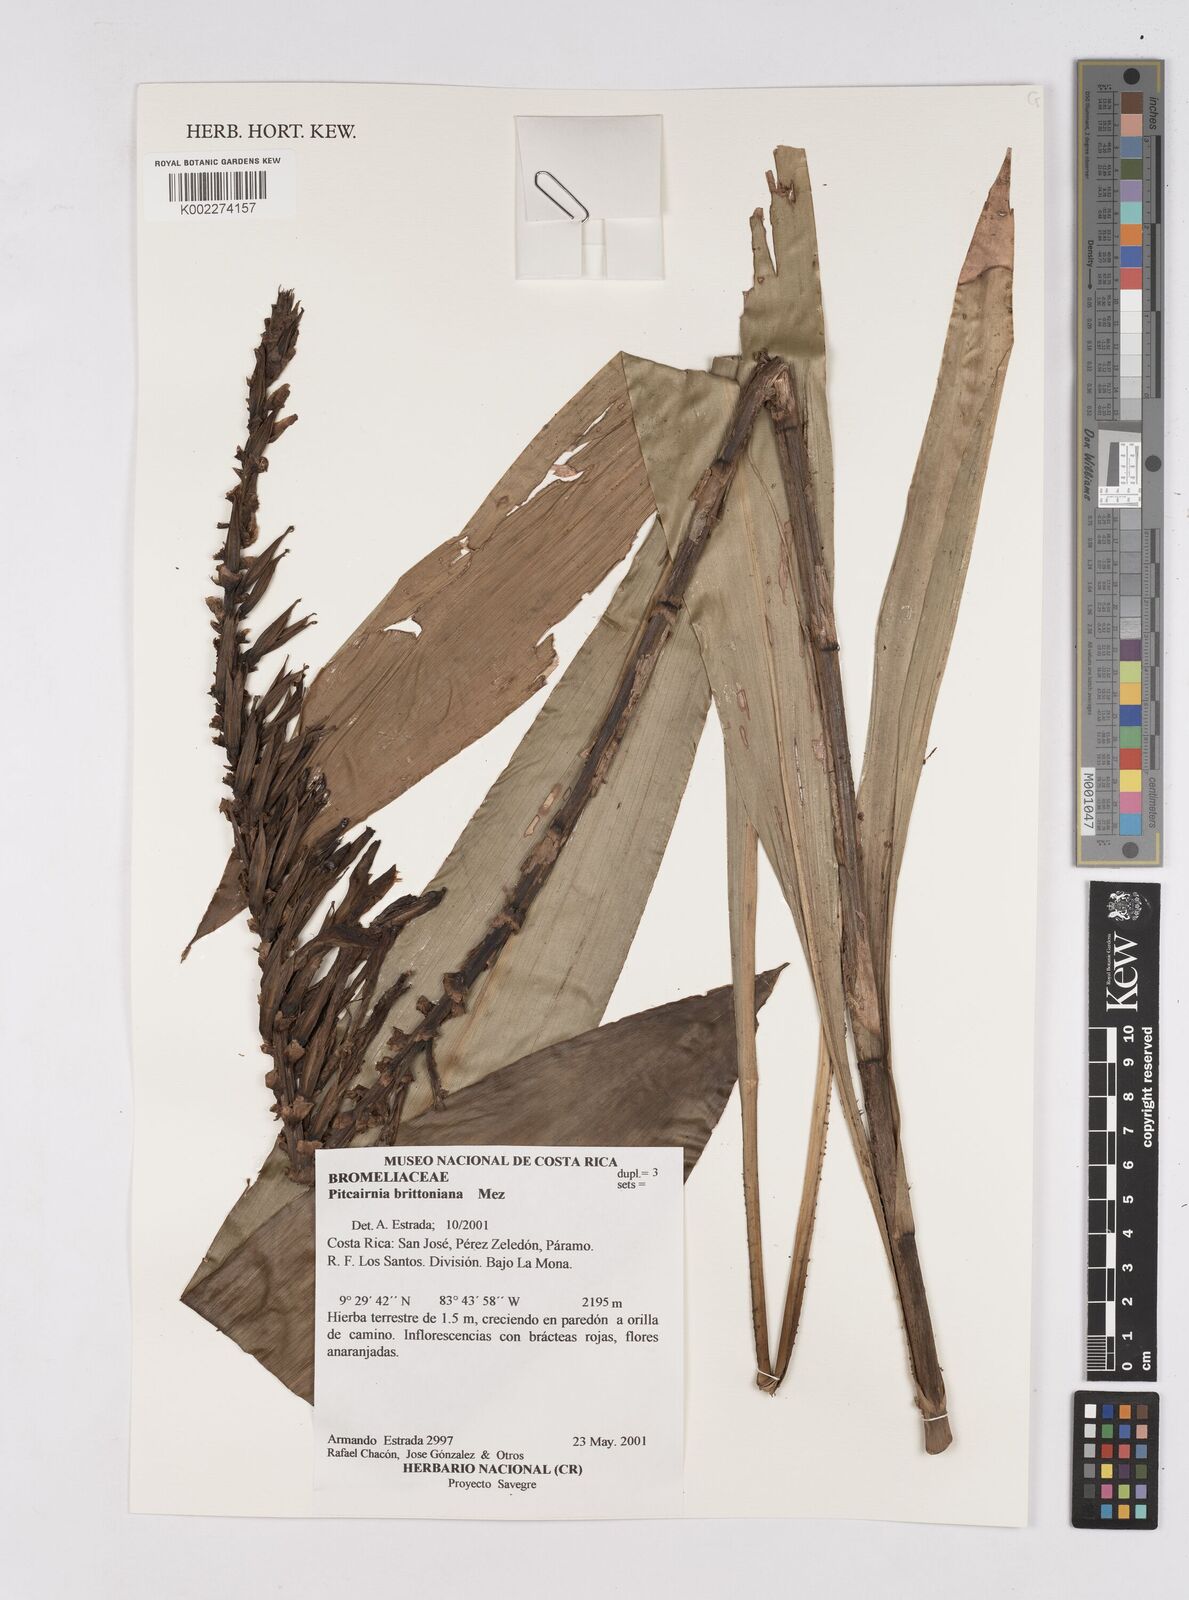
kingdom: Plantae
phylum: Tracheophyta
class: Liliopsida
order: Poales
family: Bromeliaceae
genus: Pitcairnia
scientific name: Pitcairnia brittoniana
